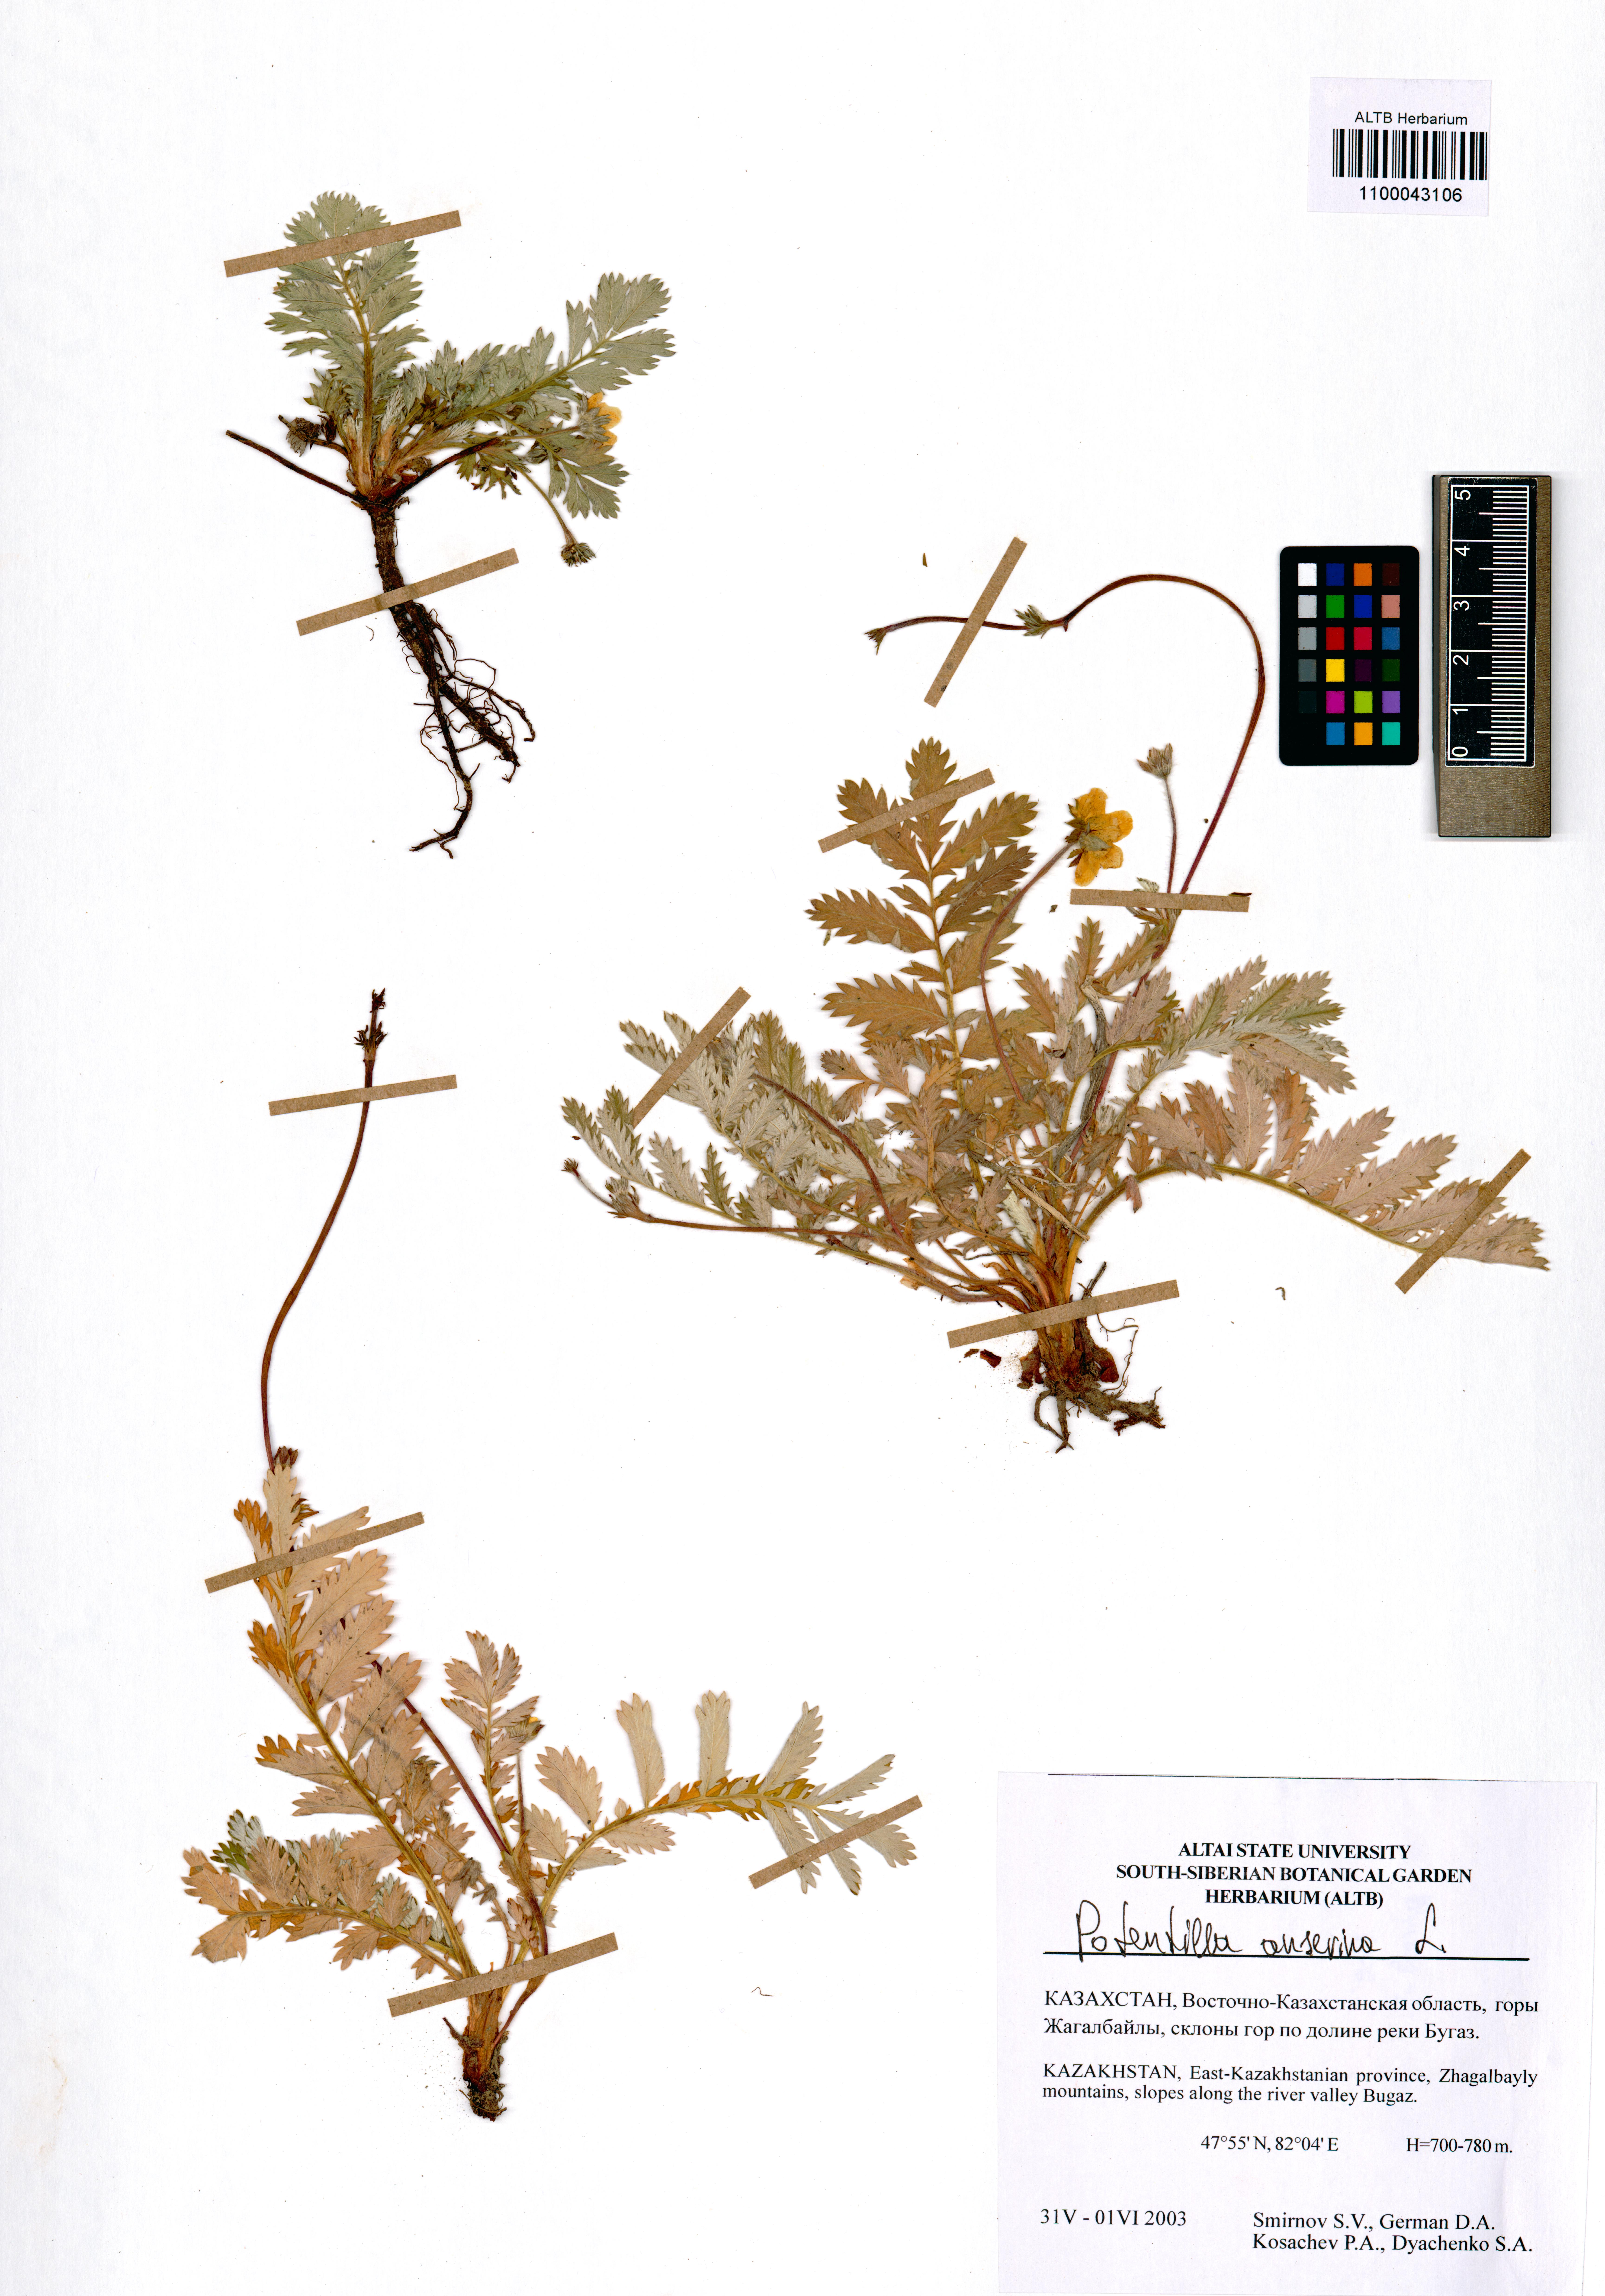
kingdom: Plantae
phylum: Tracheophyta
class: Magnoliopsida
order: Rosales
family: Rosaceae
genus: Argentina
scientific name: Argentina anserina
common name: Common silverweed
